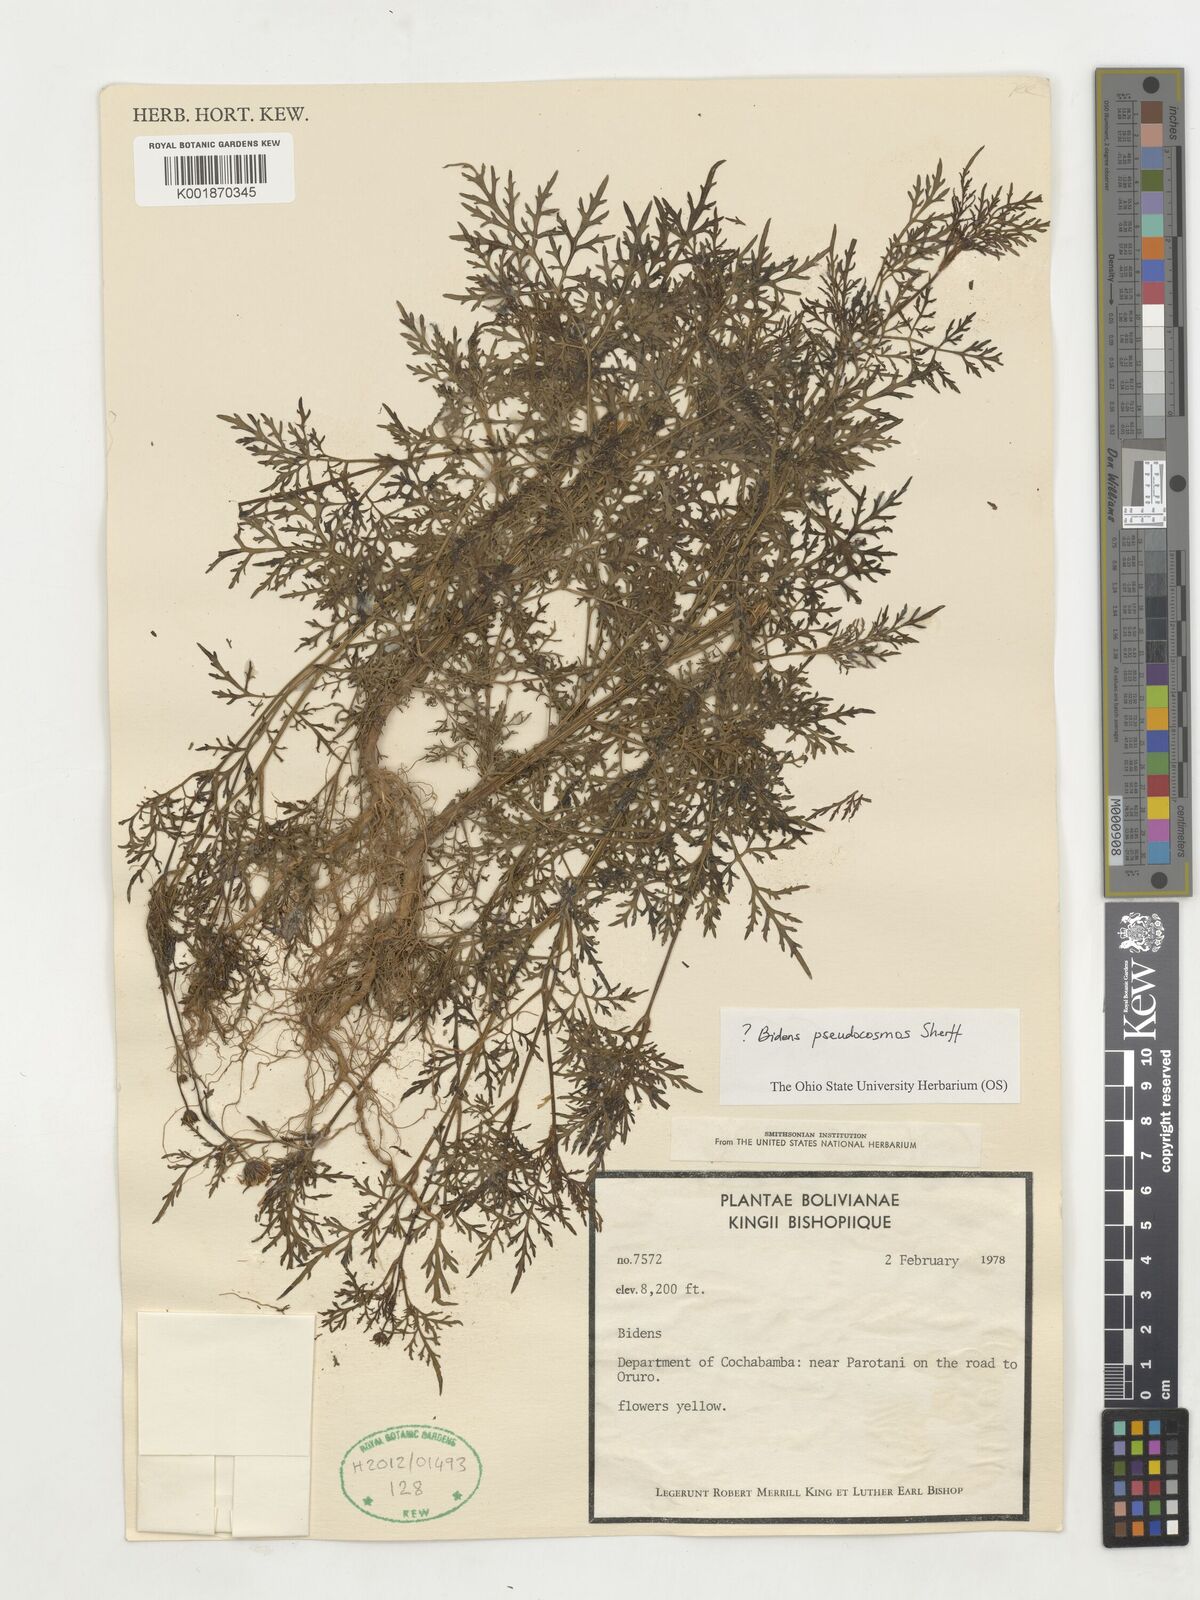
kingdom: Plantae
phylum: Tracheophyta
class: Magnoliopsida
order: Asterales
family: Asteraceae
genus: Bidens
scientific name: Bidens pseudocosmos
